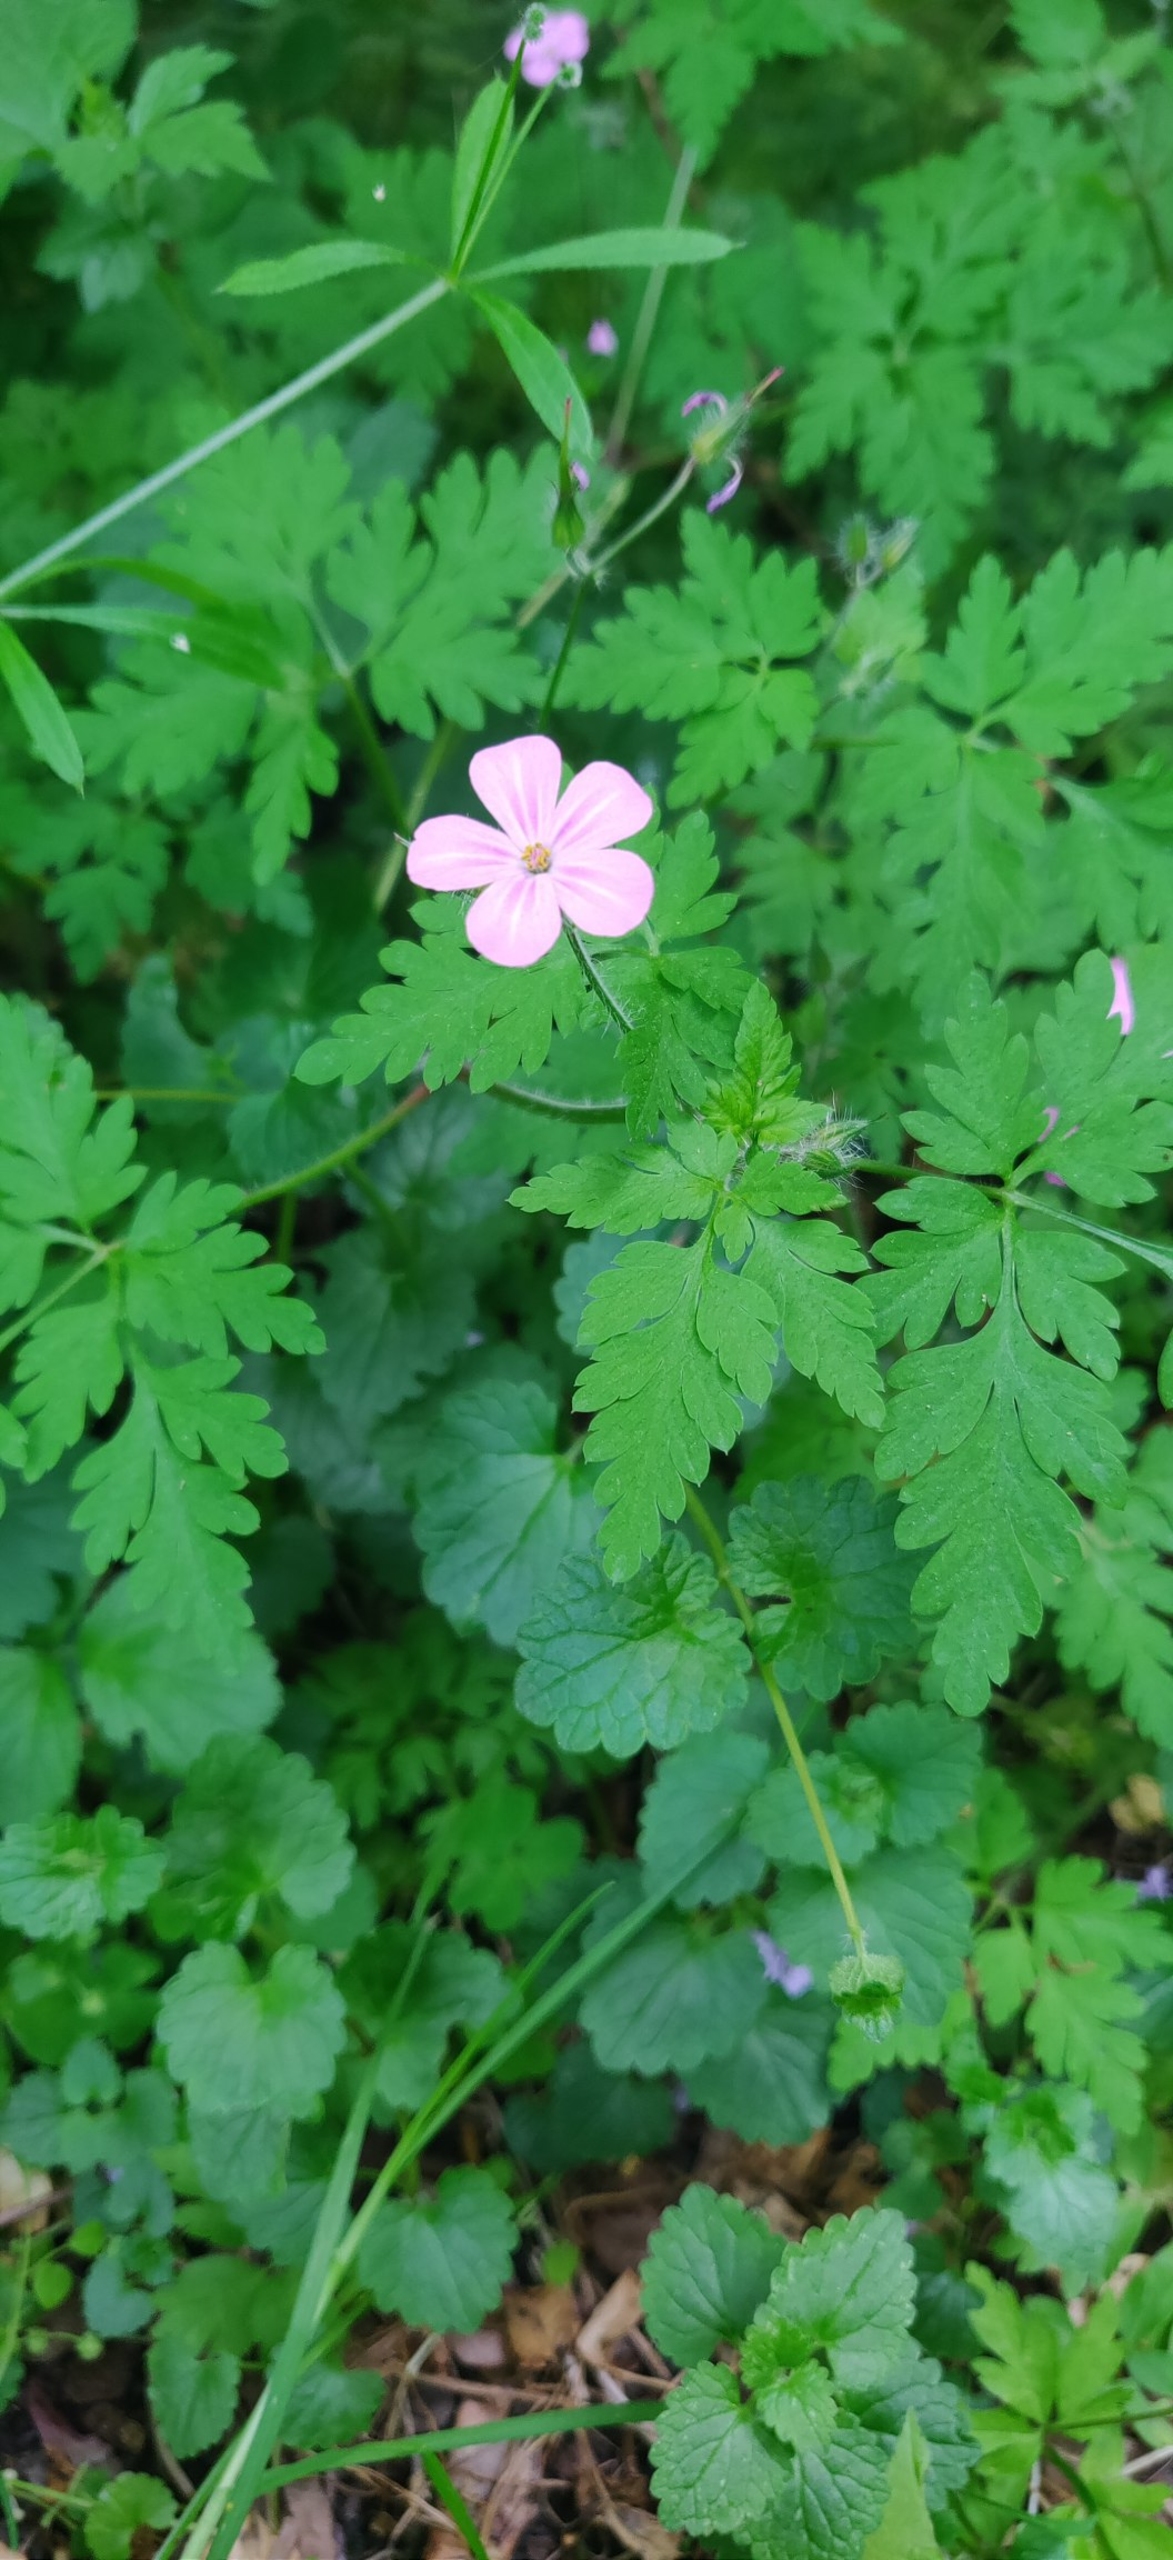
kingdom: Plantae
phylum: Tracheophyta
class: Magnoliopsida
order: Geraniales
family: Geraniaceae
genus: Geranium
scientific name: Geranium robertianum
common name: Stinkende storkenæb
